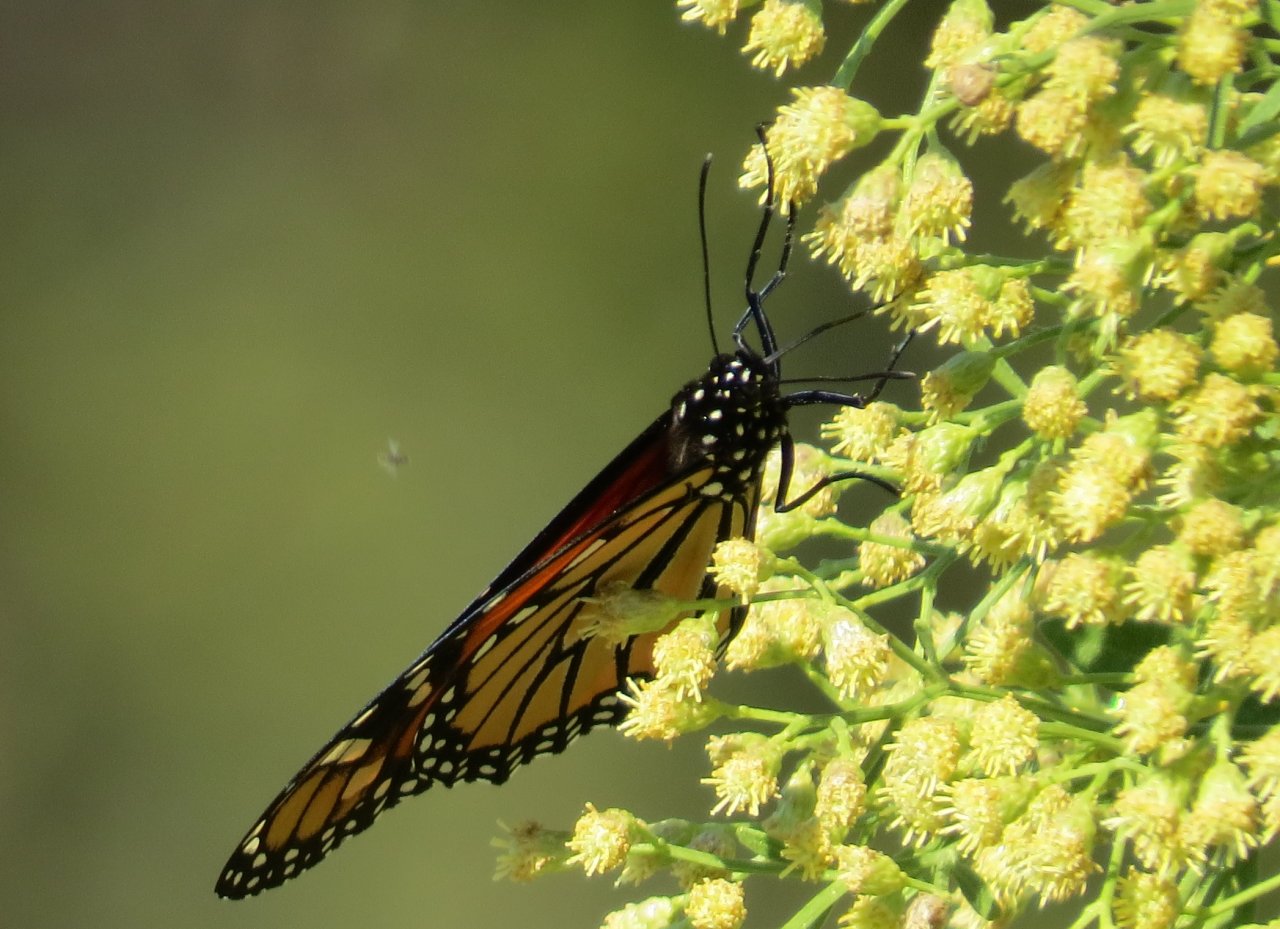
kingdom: Animalia
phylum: Arthropoda
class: Insecta
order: Lepidoptera
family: Nymphalidae
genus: Danaus
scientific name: Danaus plexippus
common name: Monarch
